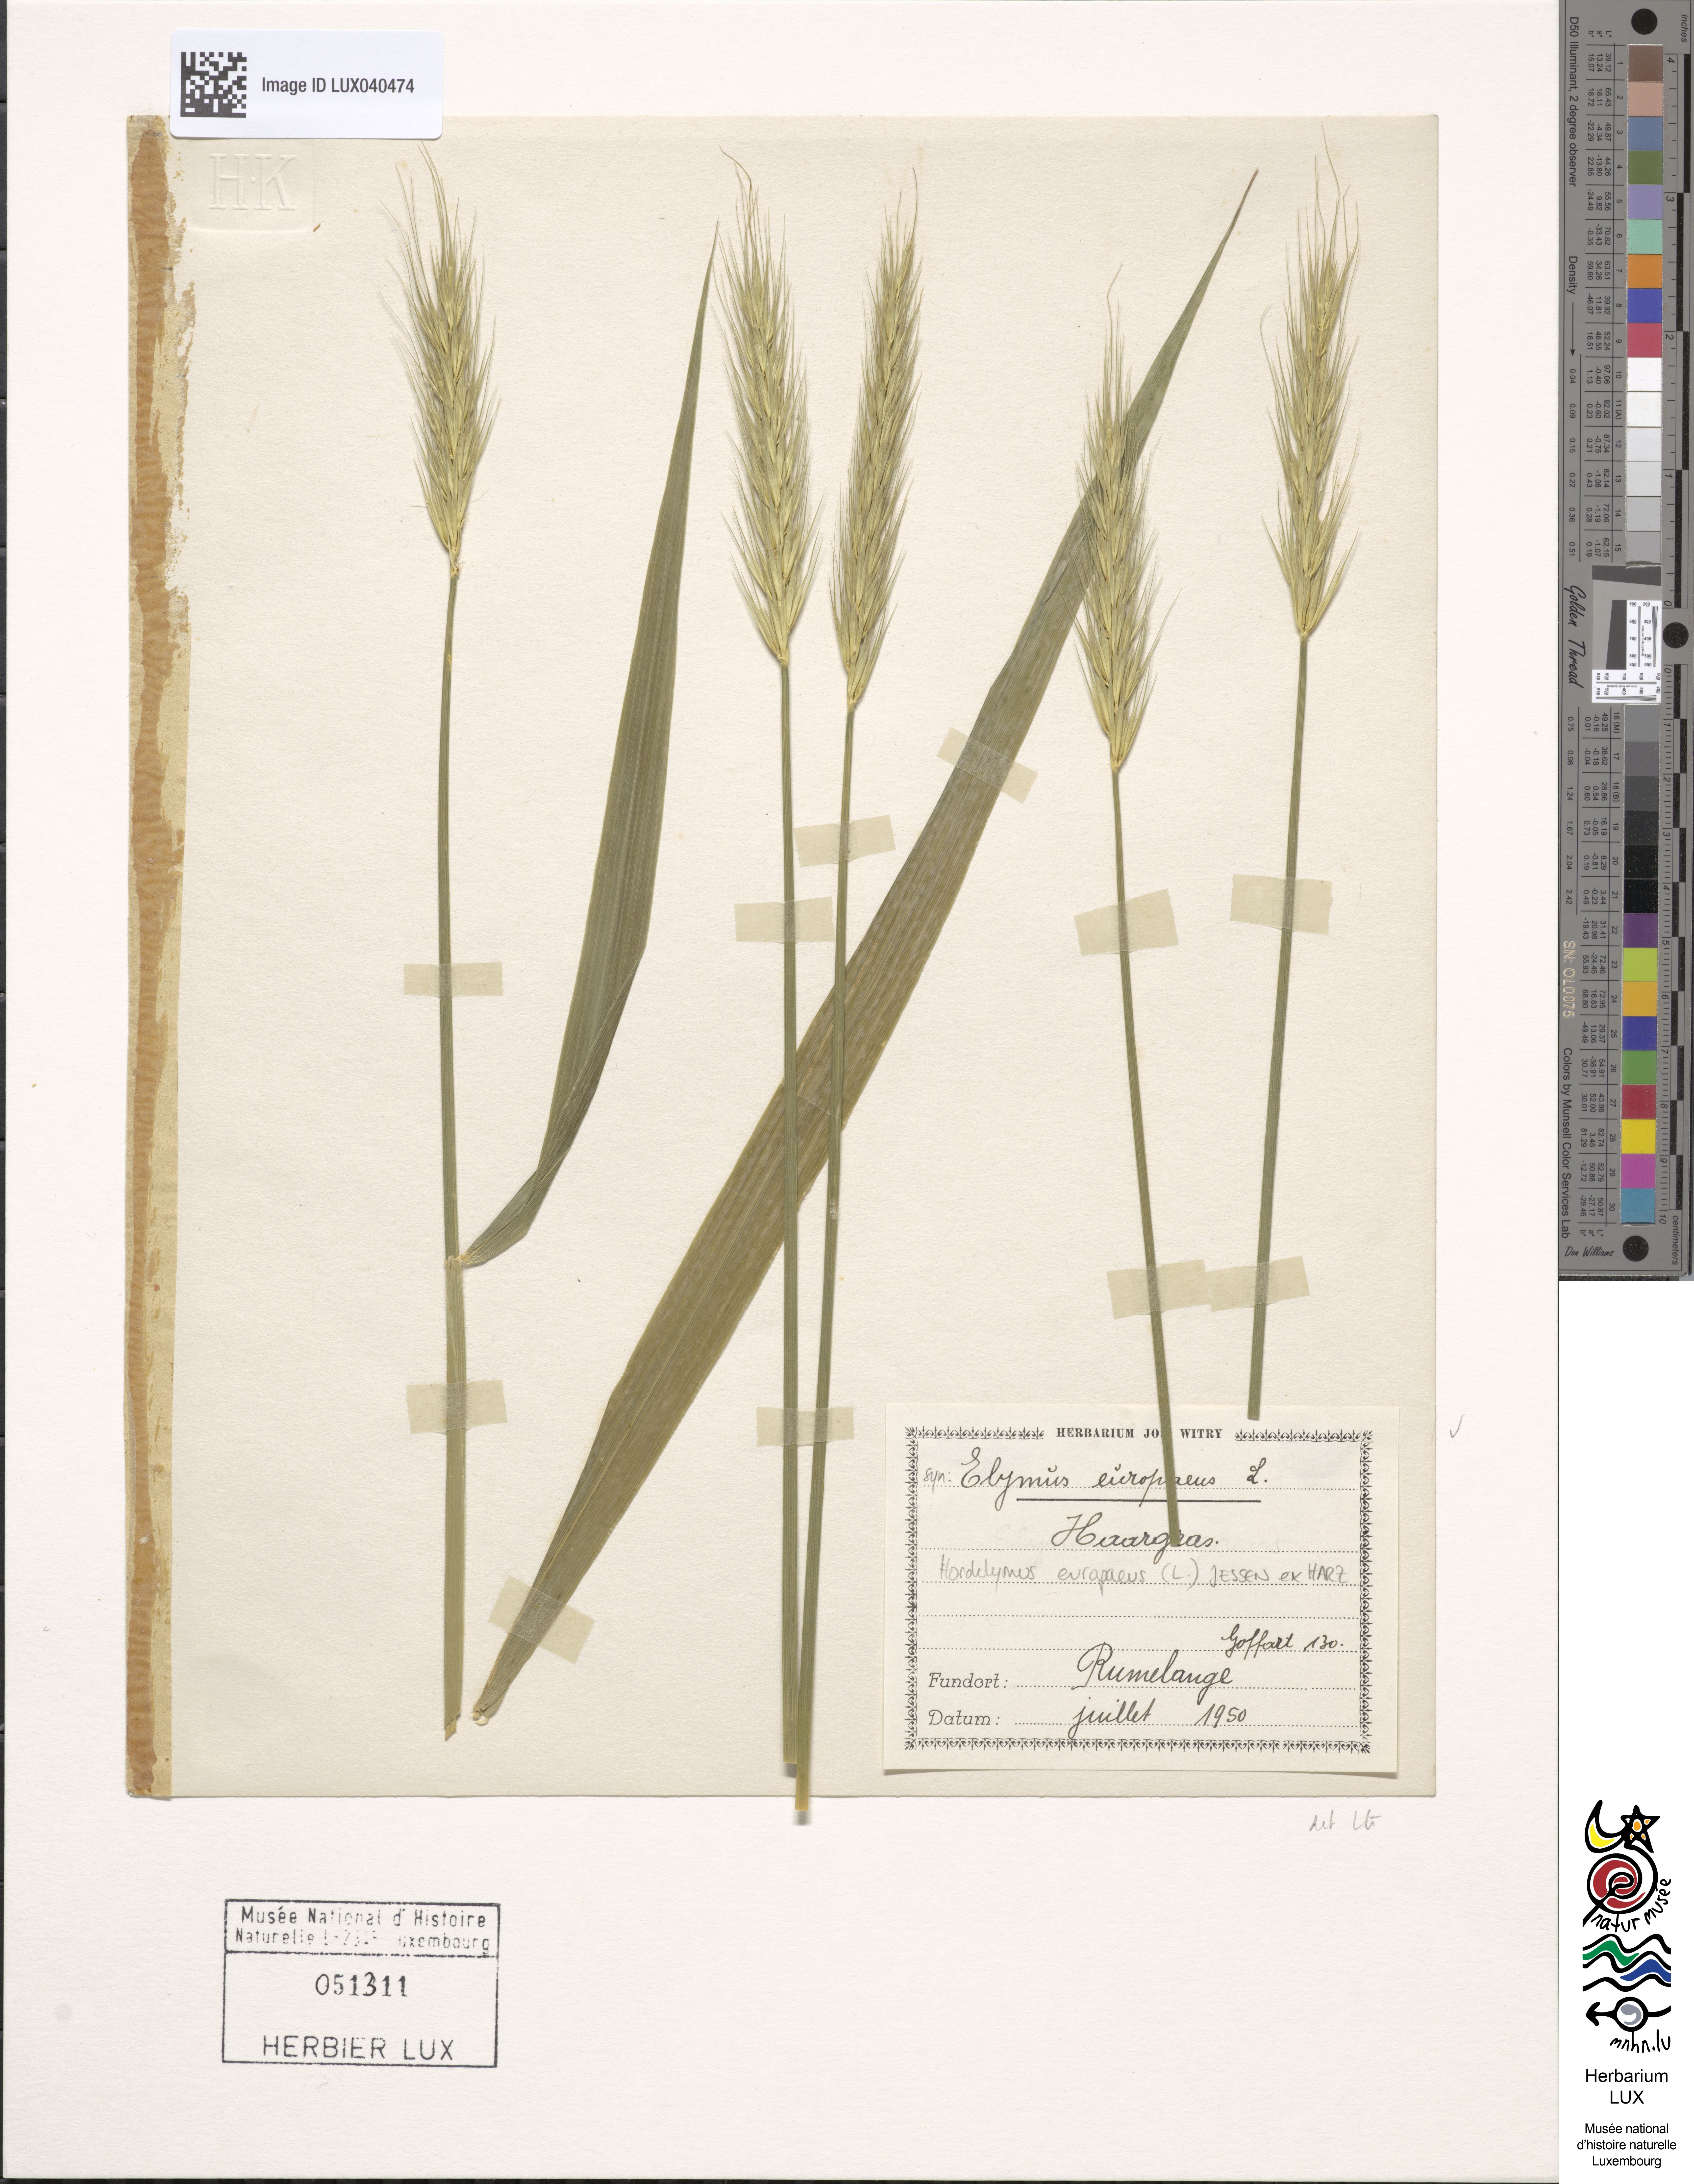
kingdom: Plantae
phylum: Tracheophyta
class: Liliopsida
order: Poales
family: Poaceae
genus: Hordelymus
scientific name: Hordelymus europaeus
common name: Wood-barley
